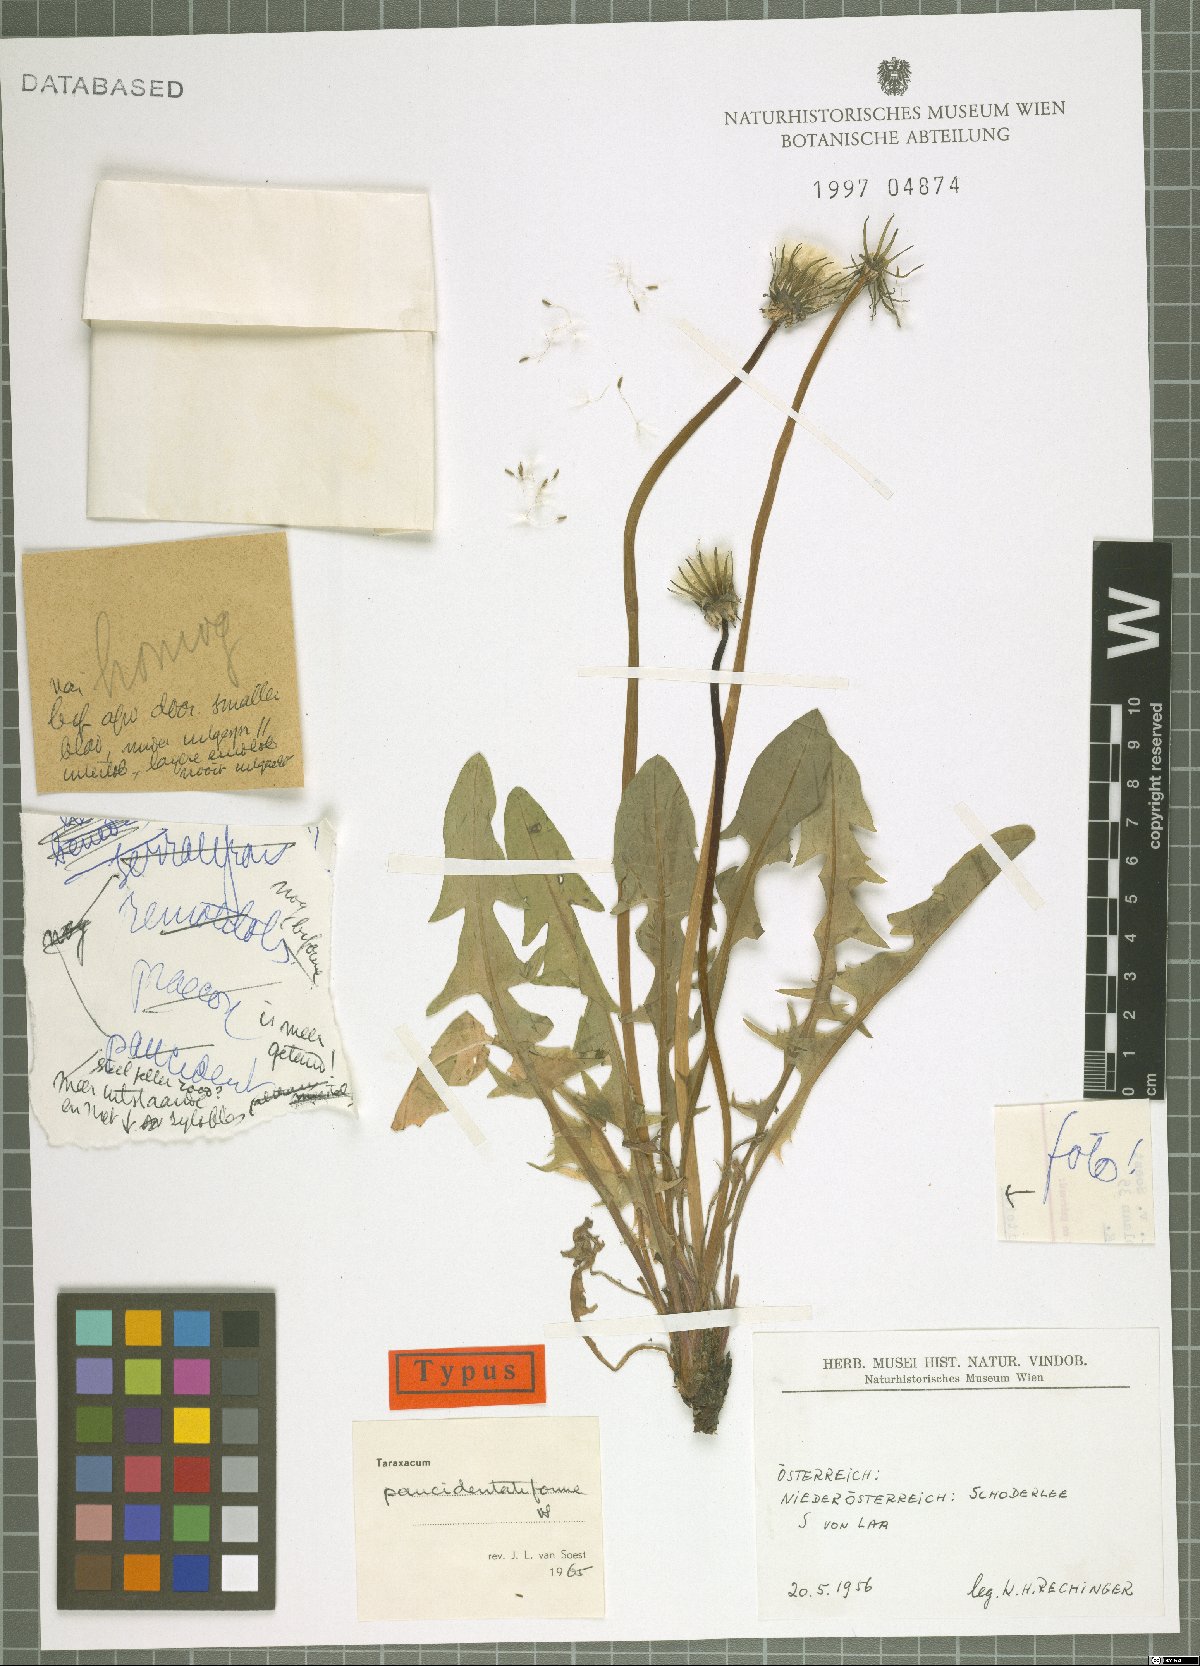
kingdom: Plantae
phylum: Tracheophyta
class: Magnoliopsida
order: Asterales
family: Asteraceae
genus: Taraxacum
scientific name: Taraxacum paucidentatiforme
